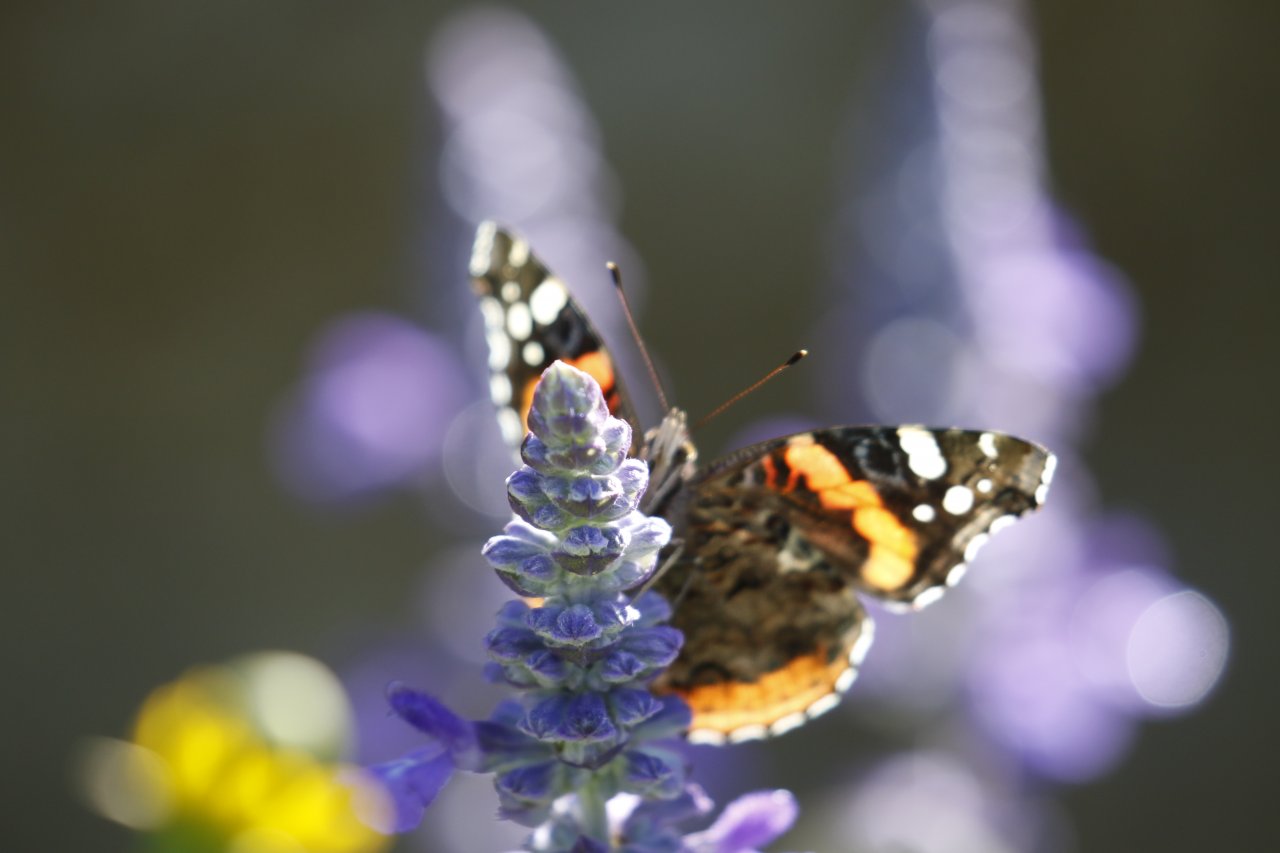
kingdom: Animalia
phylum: Arthropoda
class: Insecta
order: Lepidoptera
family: Nymphalidae
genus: Vanessa
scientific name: Vanessa atalanta
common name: Red Admiral
